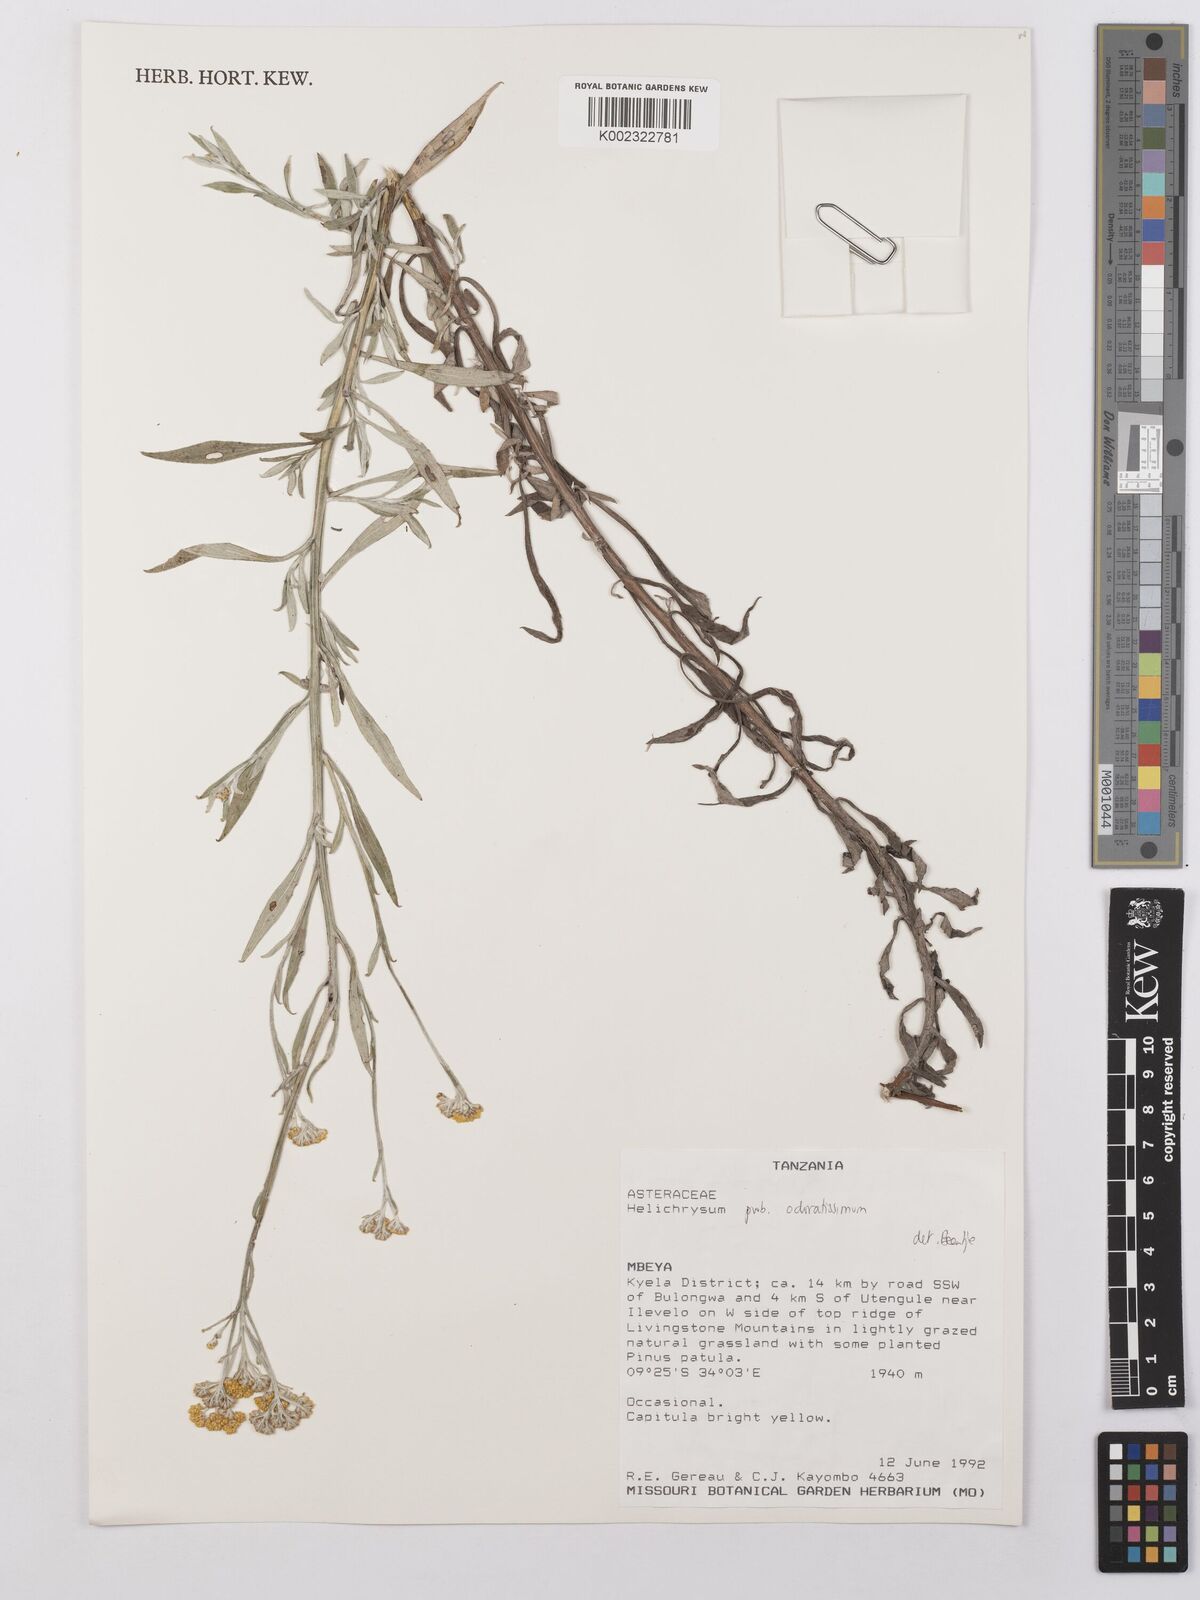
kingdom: Plantae
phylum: Tracheophyta
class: Magnoliopsida
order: Asterales
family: Asteraceae
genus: Helichrysum
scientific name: Helichrysum odoratissimum
